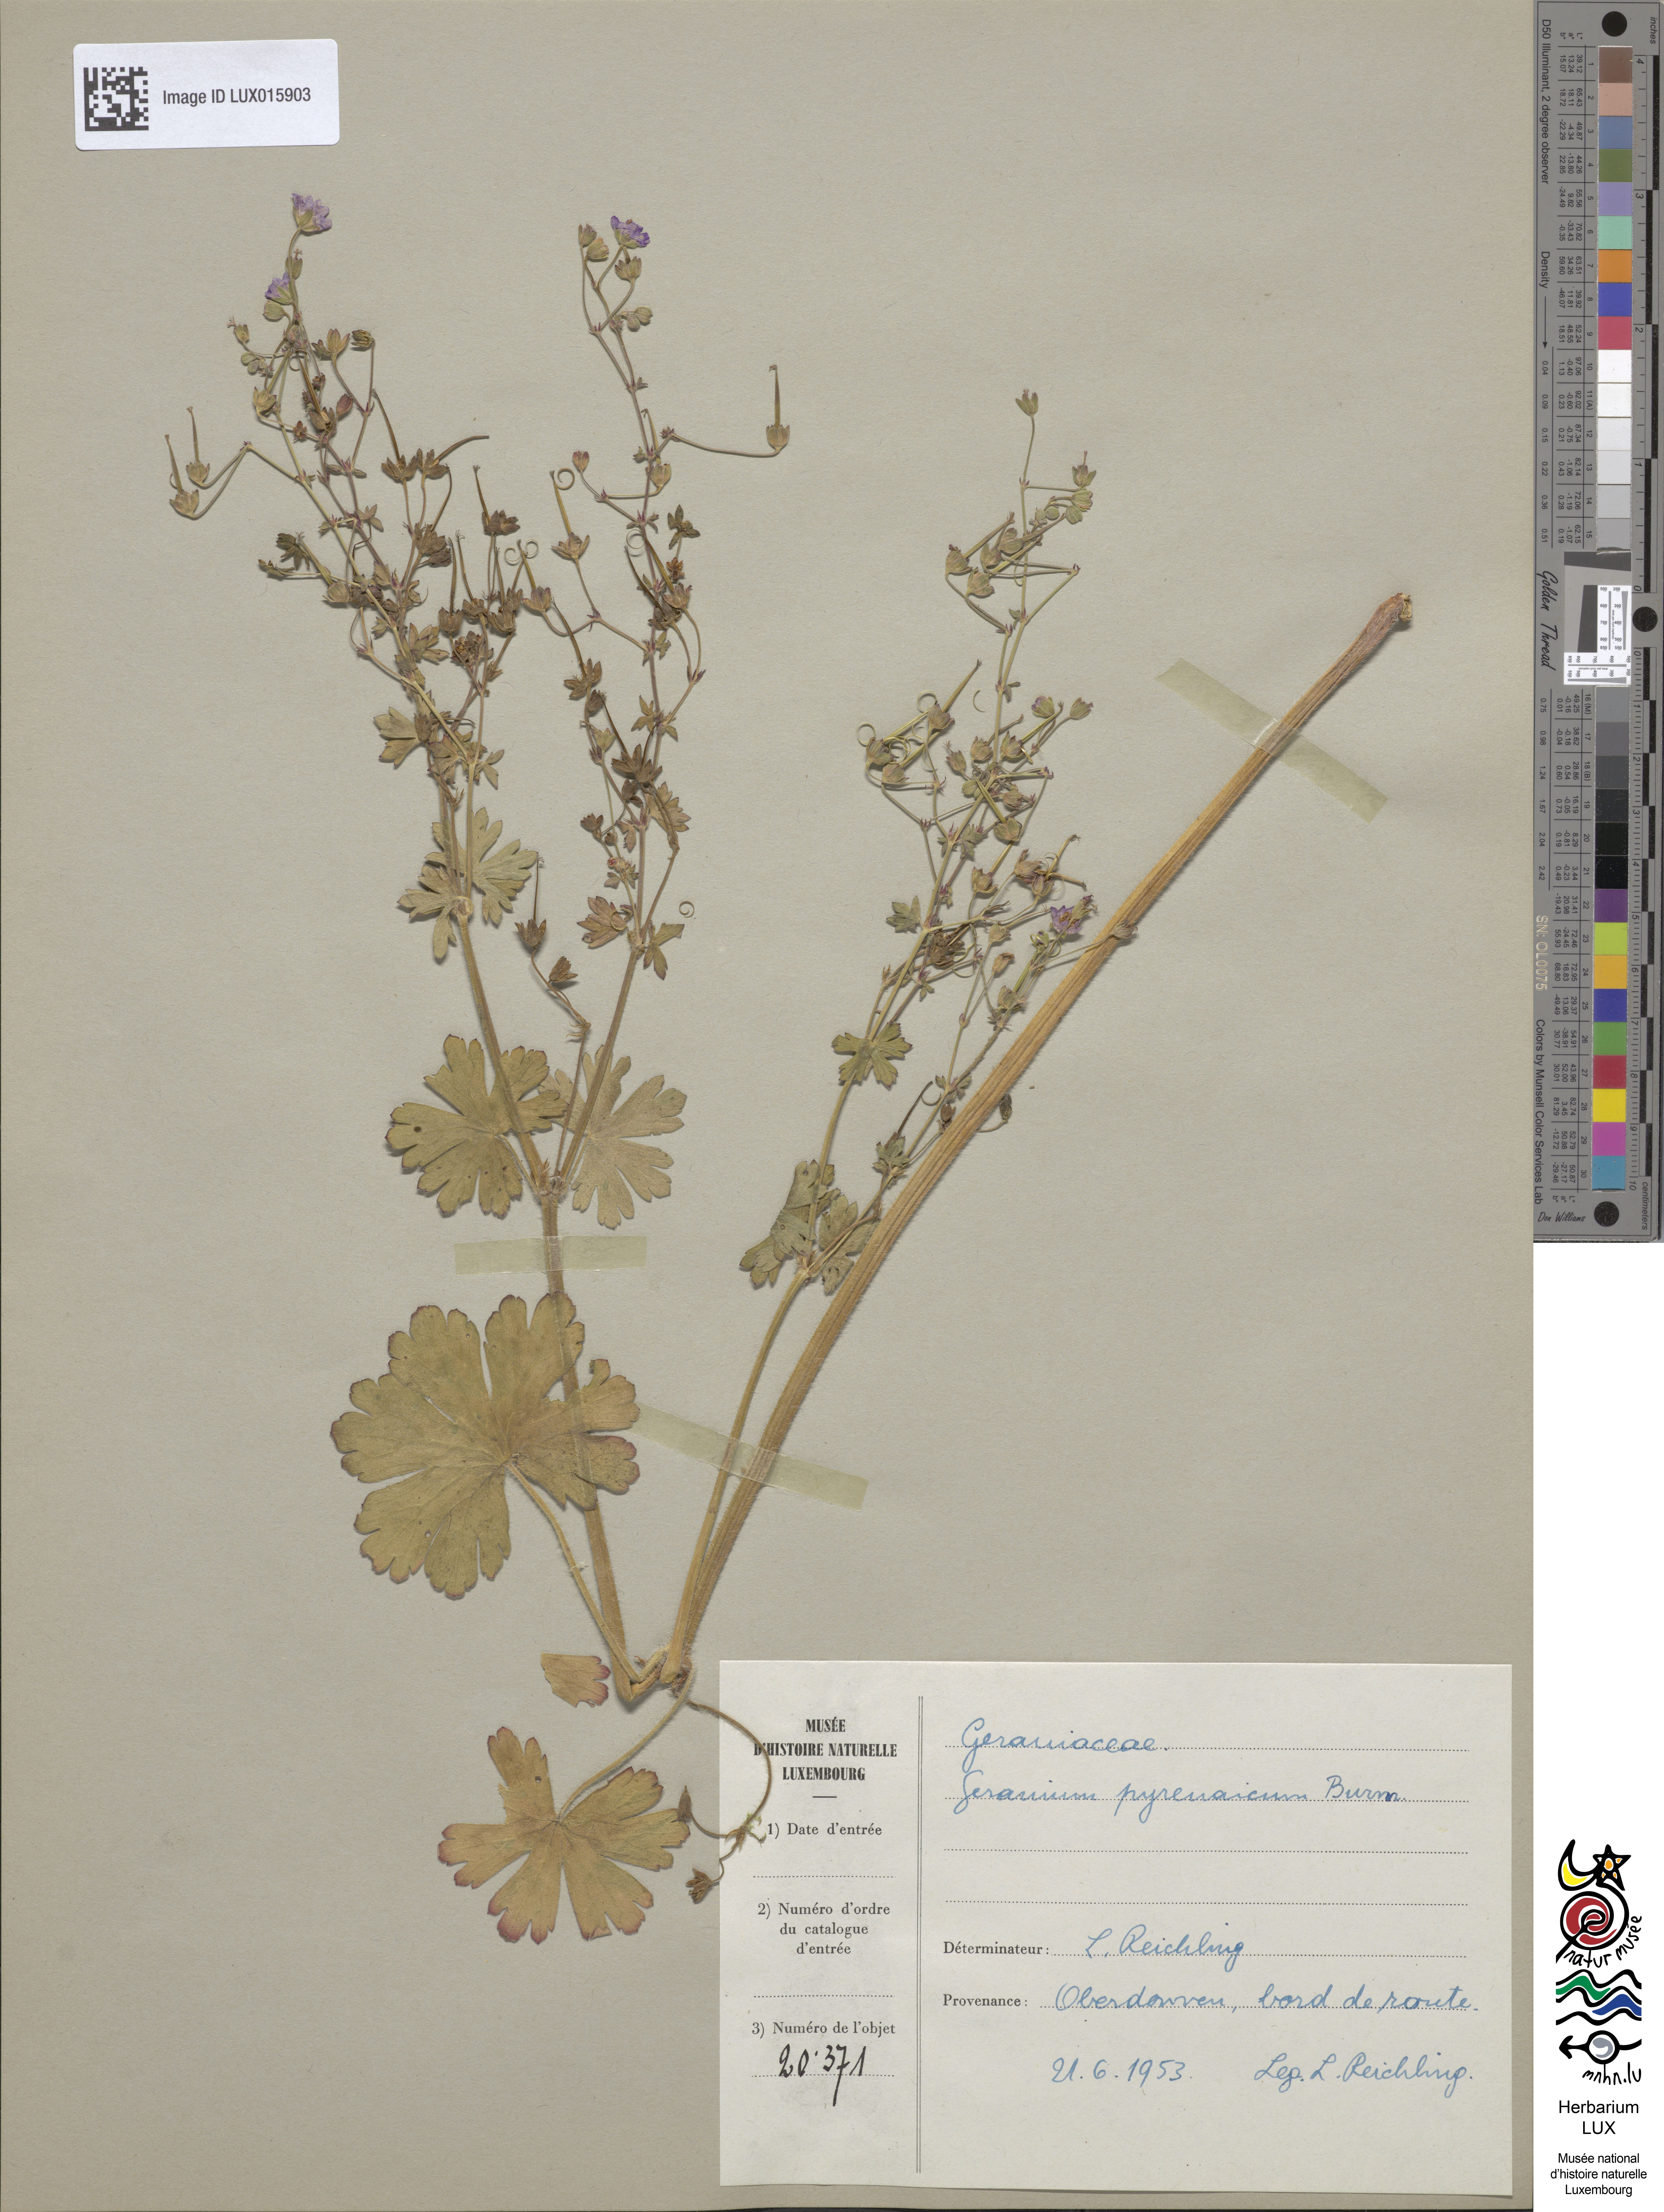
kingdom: Plantae
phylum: Tracheophyta
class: Magnoliopsida
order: Geraniales
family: Geraniaceae
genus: Geranium
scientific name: Geranium pyrenaicum
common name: Hedgerow crane's-bill
